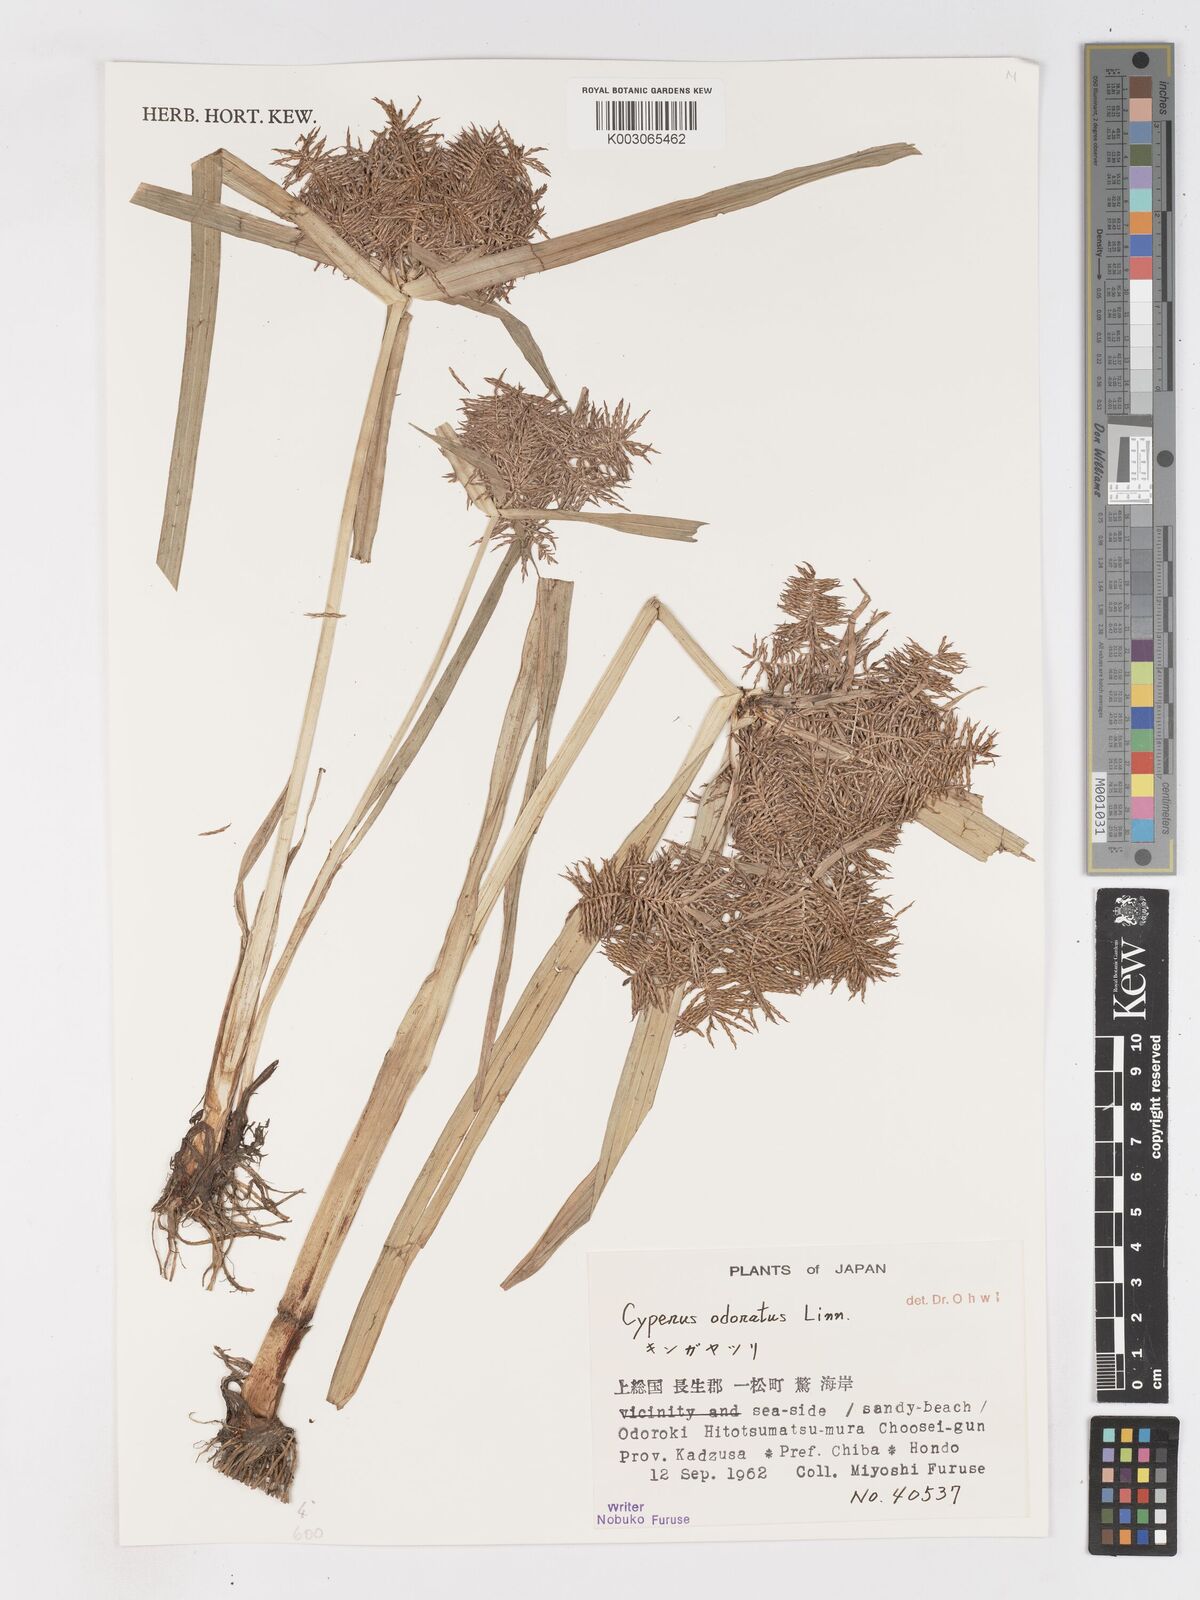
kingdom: Plantae
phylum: Tracheophyta
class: Liliopsida
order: Poales
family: Cyperaceae
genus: Cyperus
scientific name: Cyperus odoratus
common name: Fragrant flatsedge
